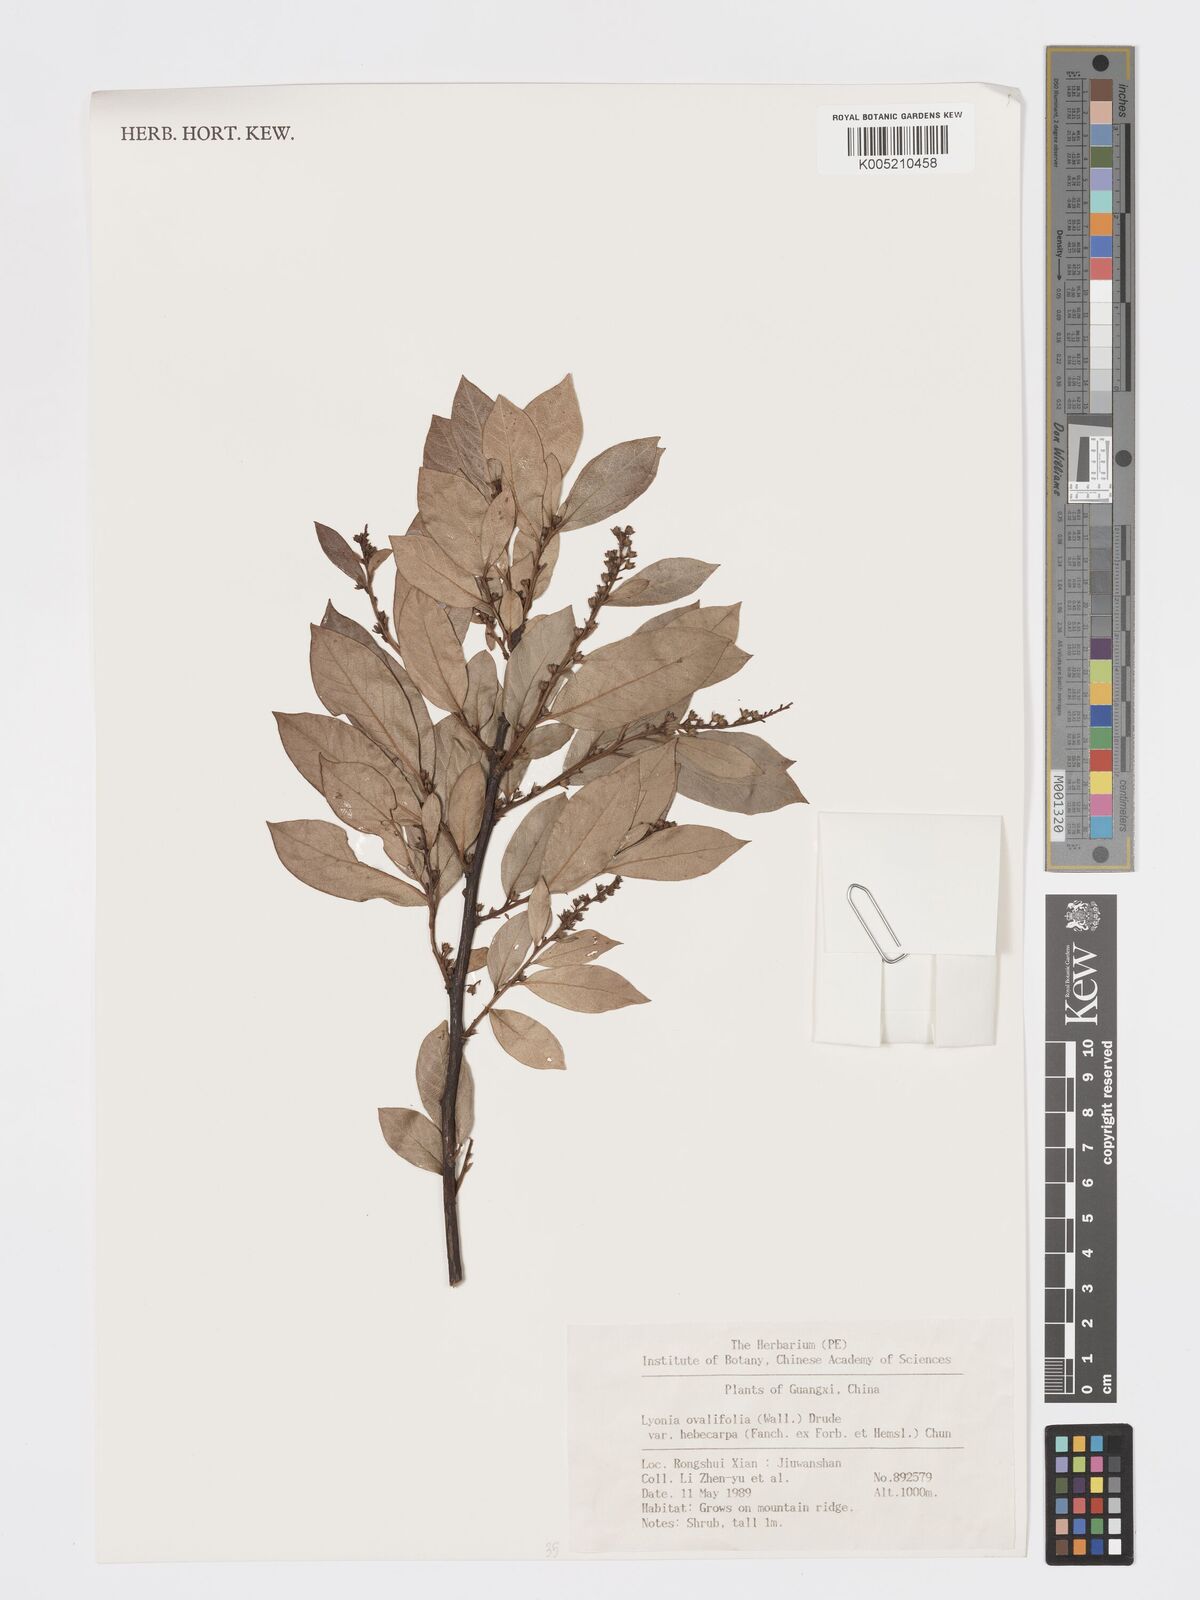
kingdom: Plantae
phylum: Tracheophyta
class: Magnoliopsida
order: Ericales
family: Ericaceae
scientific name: Ericaceae
